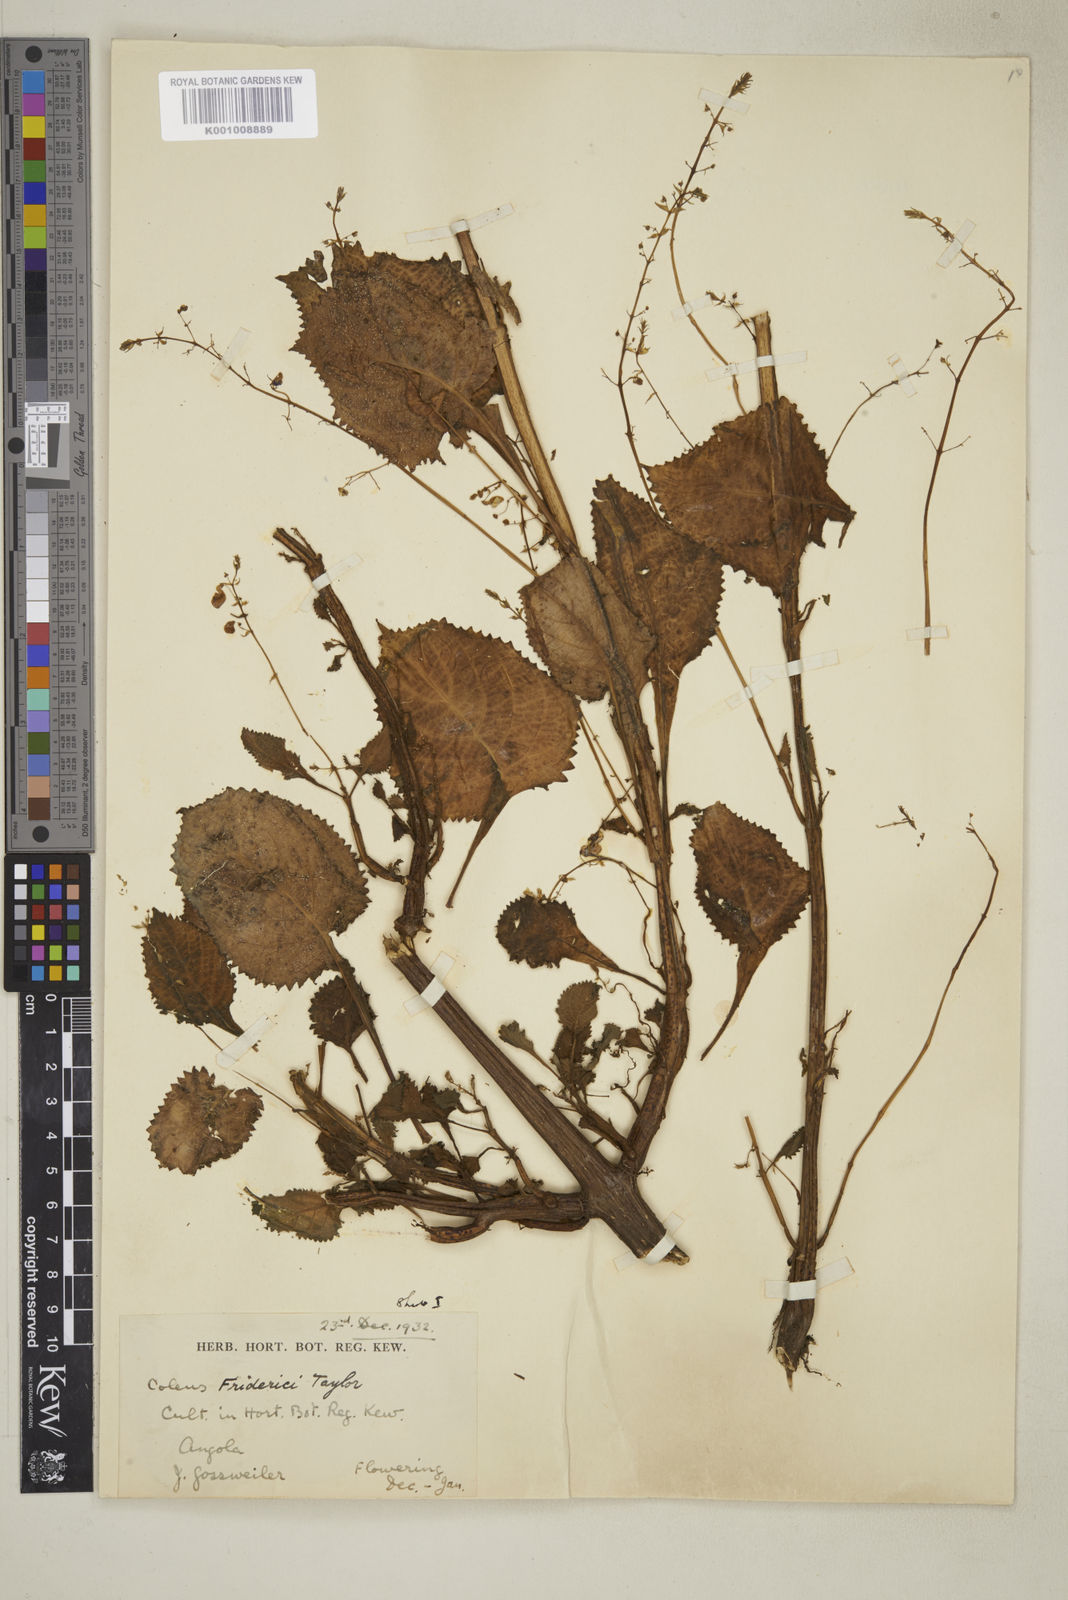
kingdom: Plantae
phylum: Tracheophyta
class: Magnoliopsida
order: Lamiales
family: Lamiaceae
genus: Plectranthus
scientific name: Plectranthus
